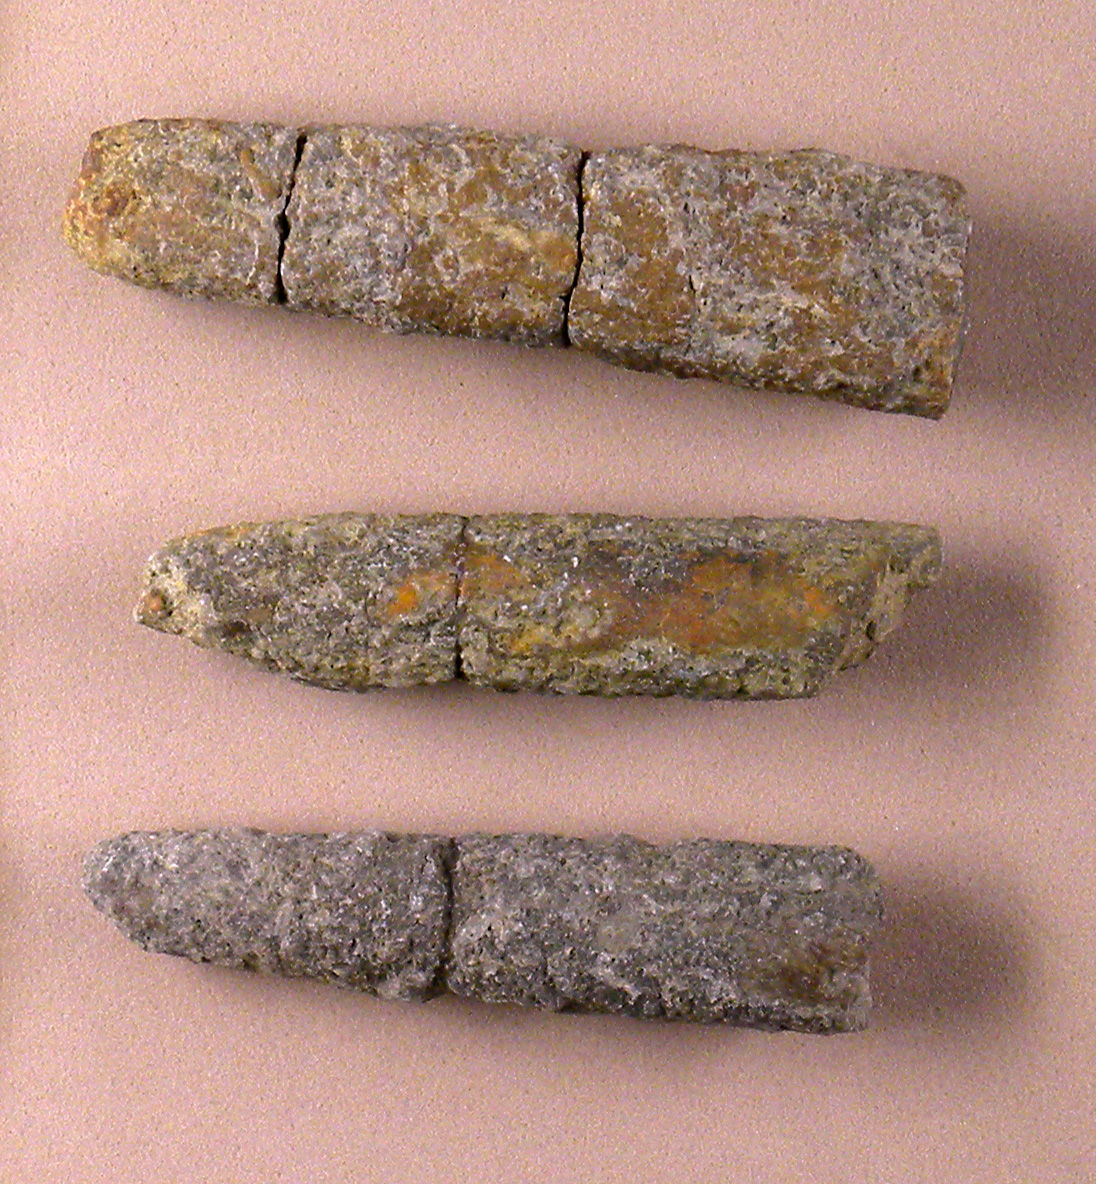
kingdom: Animalia
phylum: Mollusca
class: Cephalopoda
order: Belemnitida
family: Megateuthididae
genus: Dactyloteuthis
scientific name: Dactyloteuthis similis
